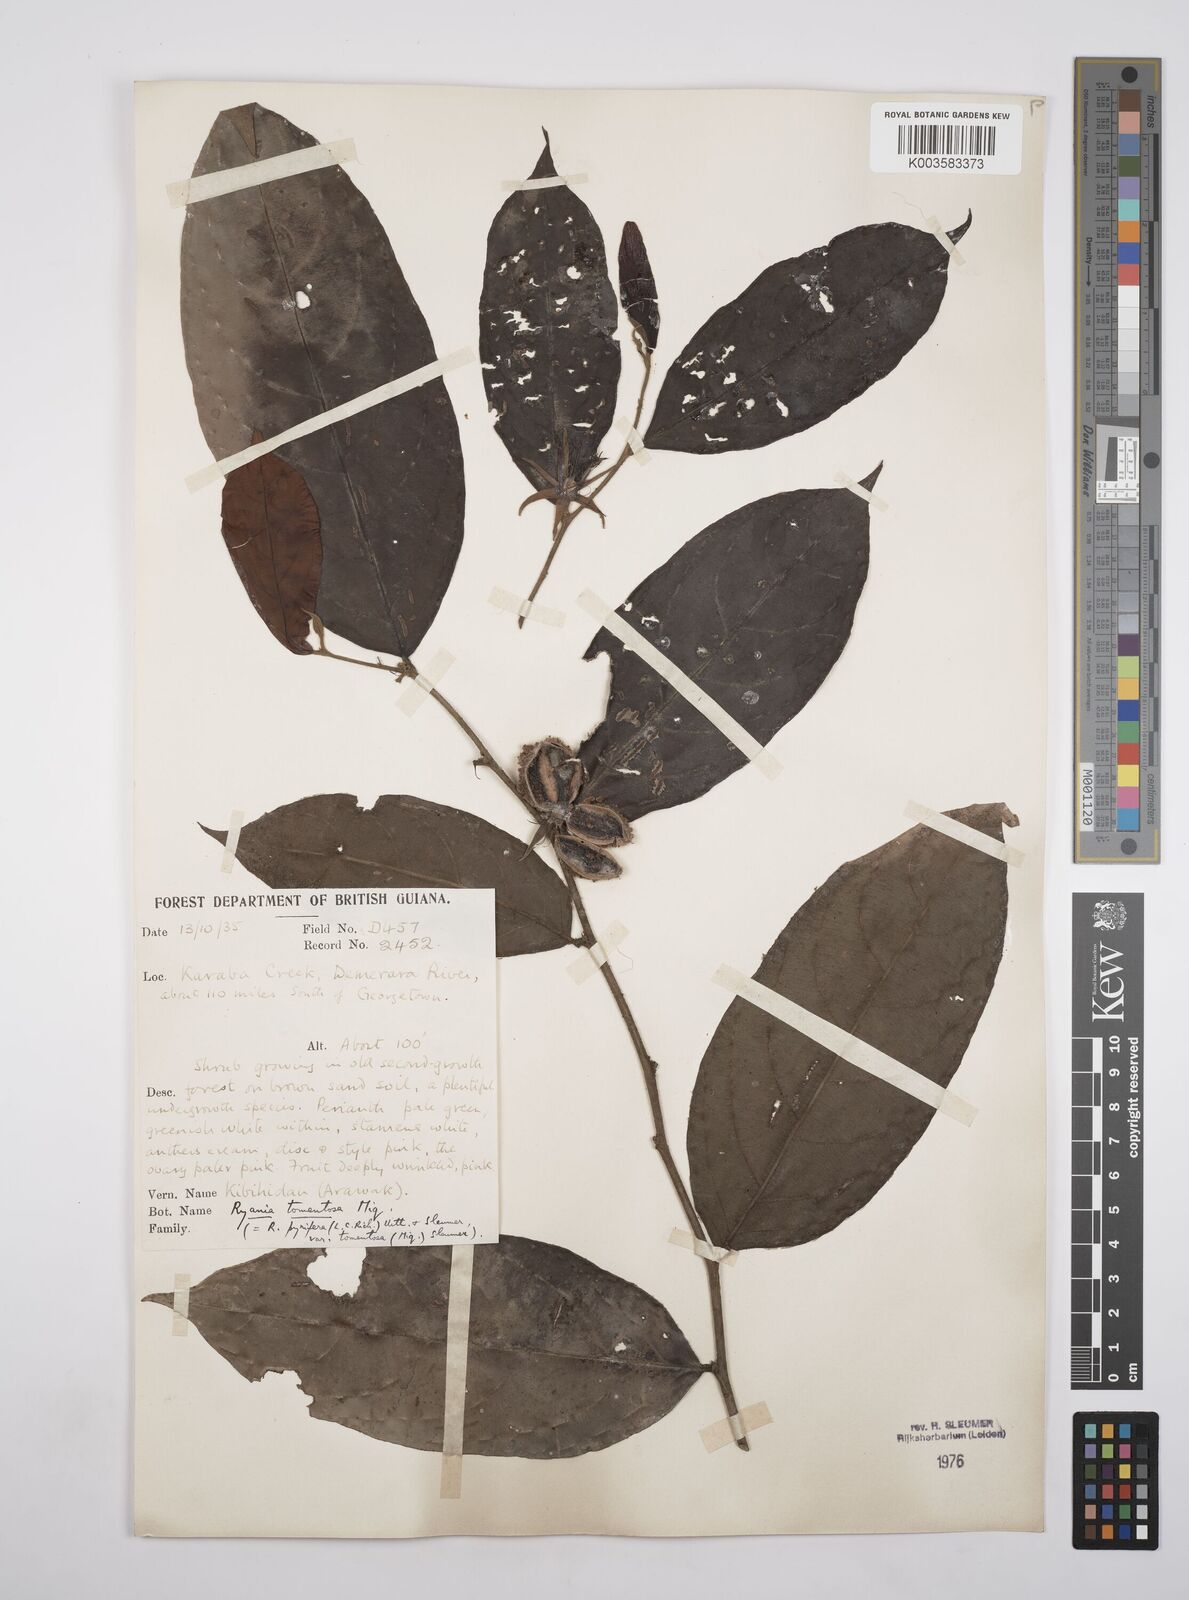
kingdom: Plantae
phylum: Tracheophyta
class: Magnoliopsida
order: Malpighiales
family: Salicaceae
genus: Ryania
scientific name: Ryania speciosa
